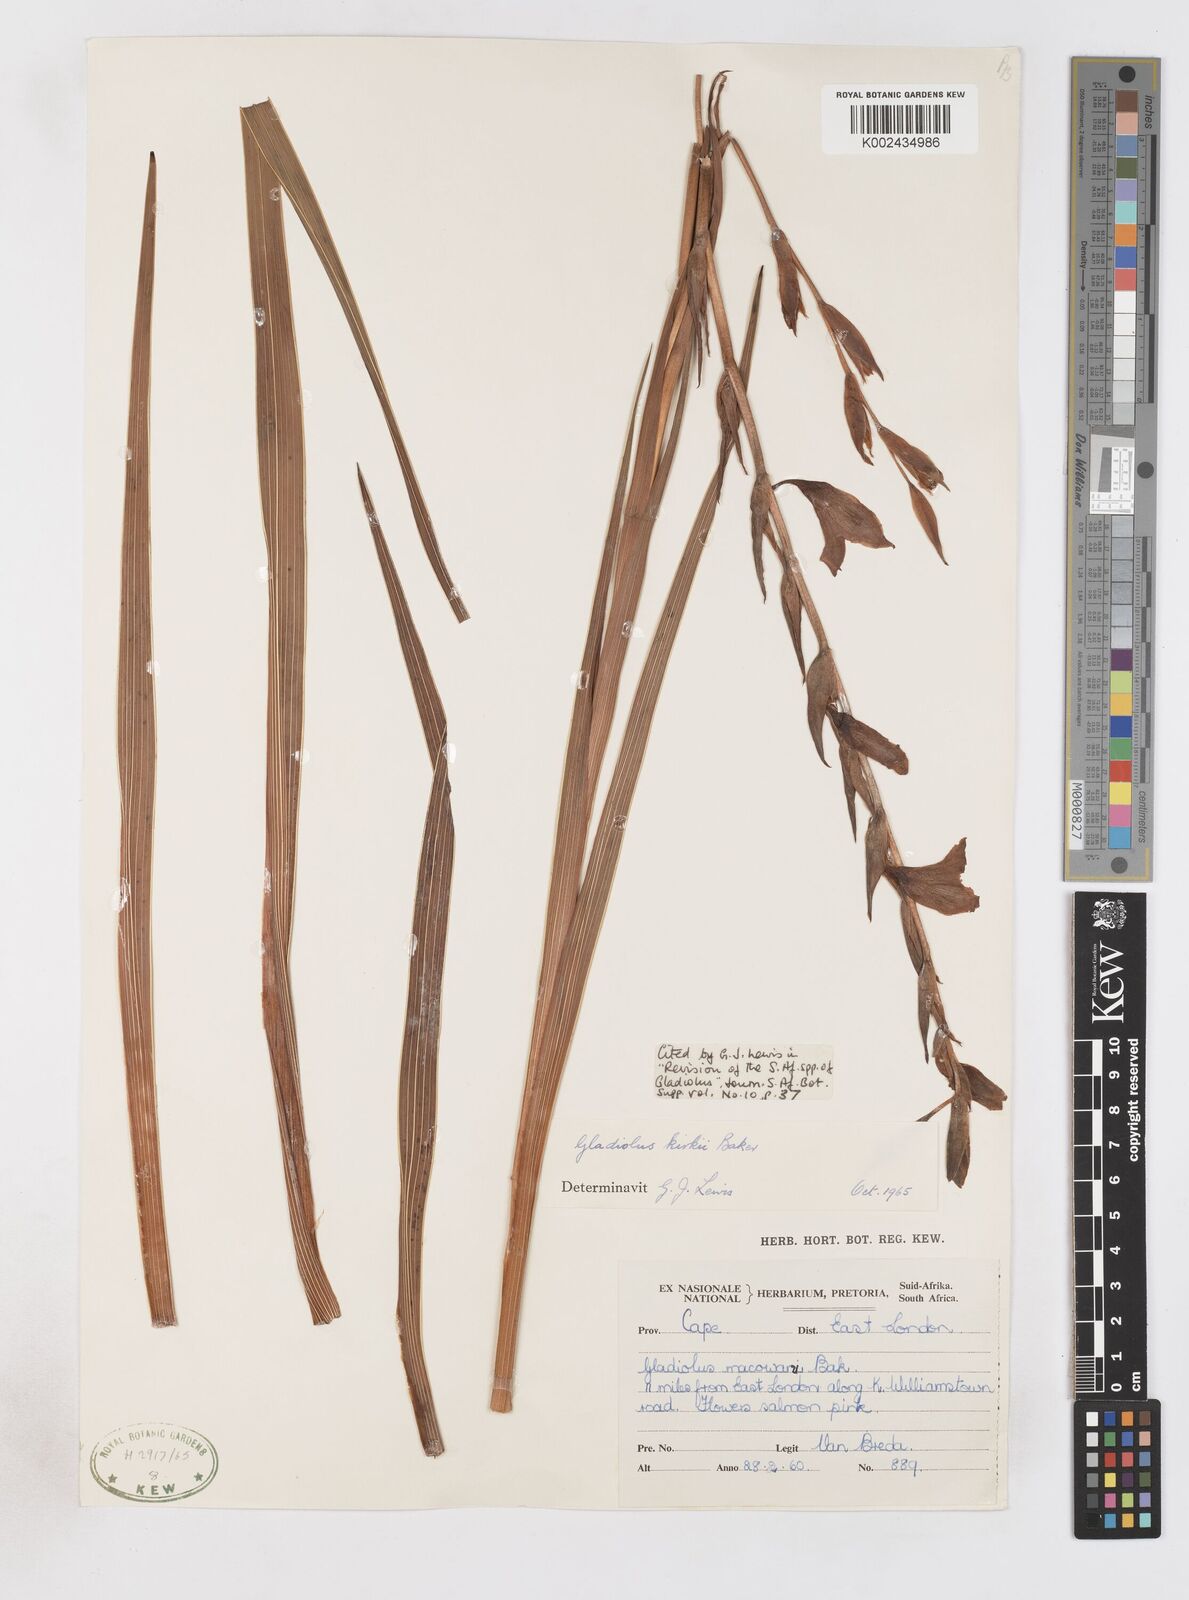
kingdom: Plantae
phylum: Tracheophyta
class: Liliopsida
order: Asparagales
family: Iridaceae
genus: Gladiolus
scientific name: Gladiolus ochroleucus
